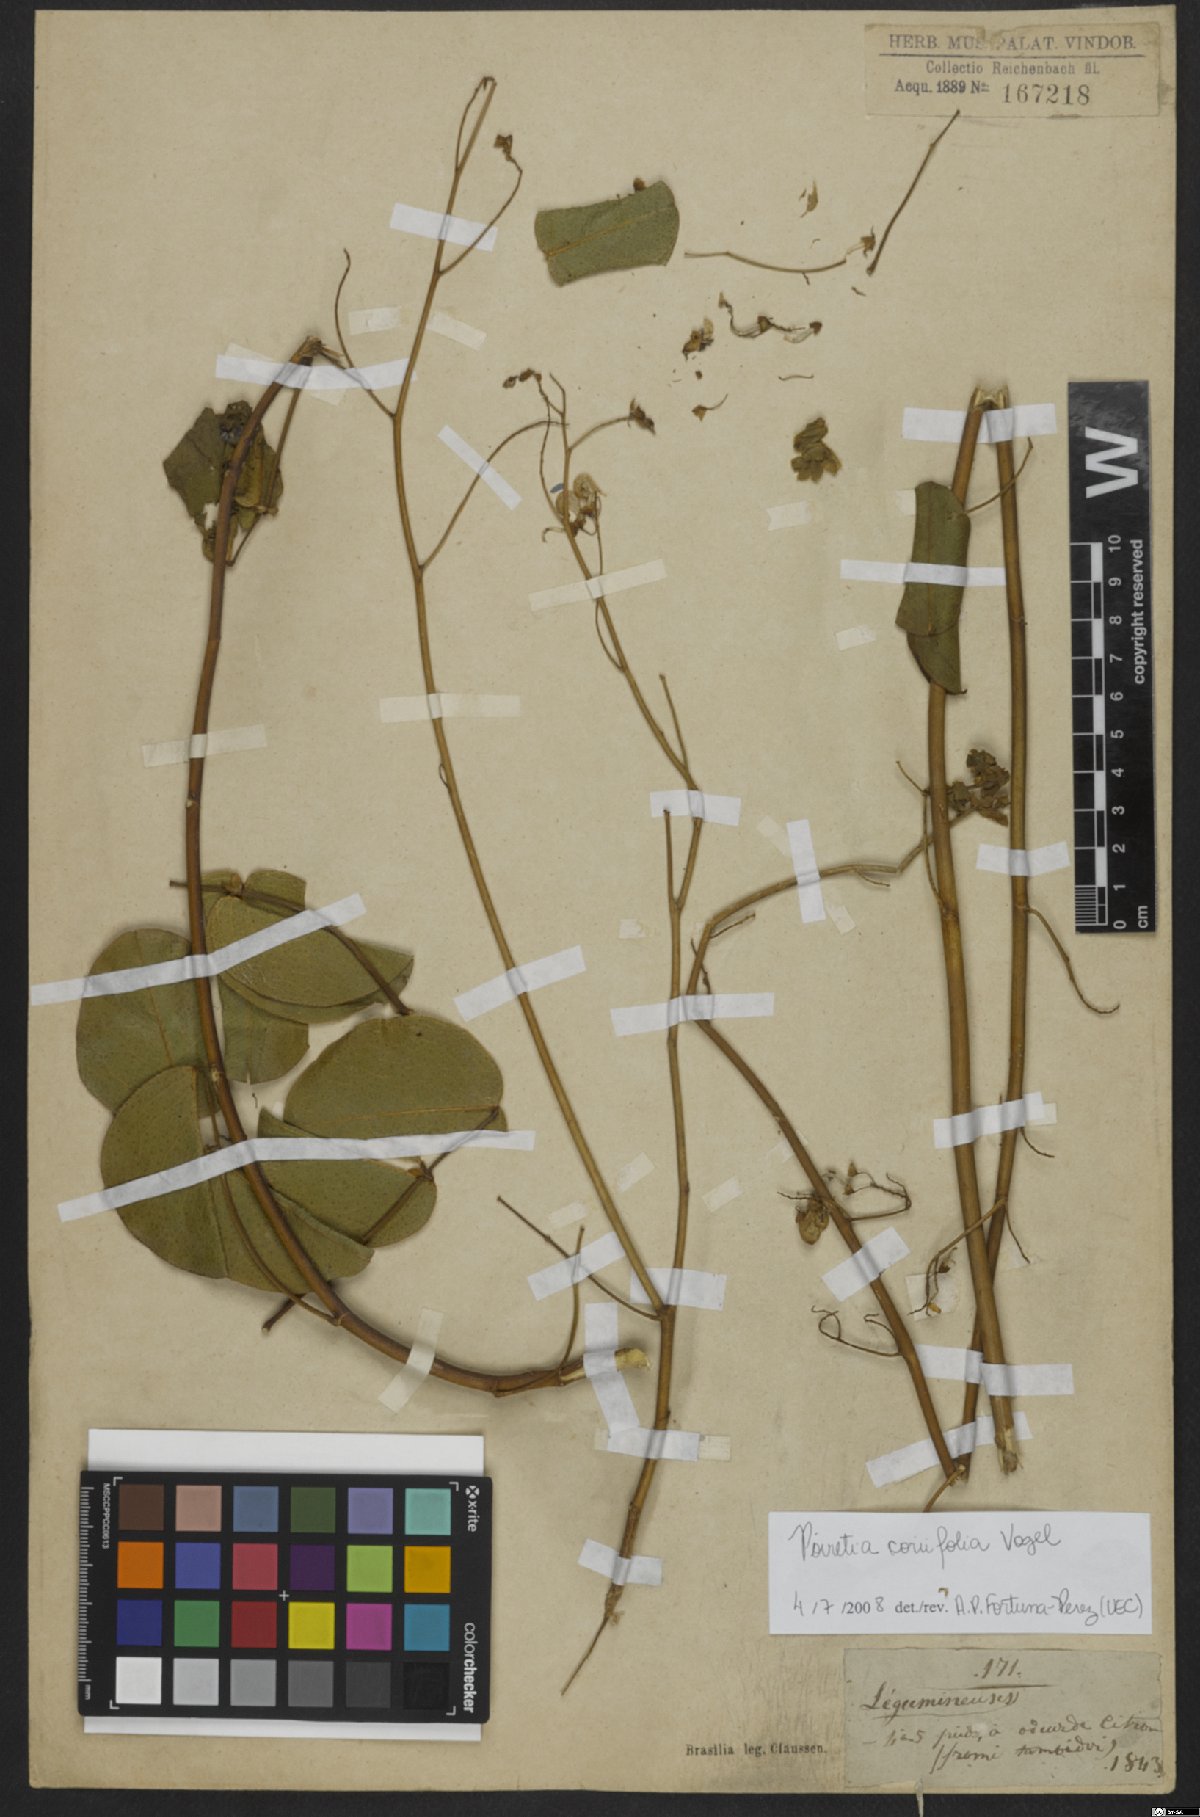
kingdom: Plantae
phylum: Tracheophyta
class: Magnoliopsida
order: Fabales
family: Fabaceae
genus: Poiretia
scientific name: Poiretia coriifolia
